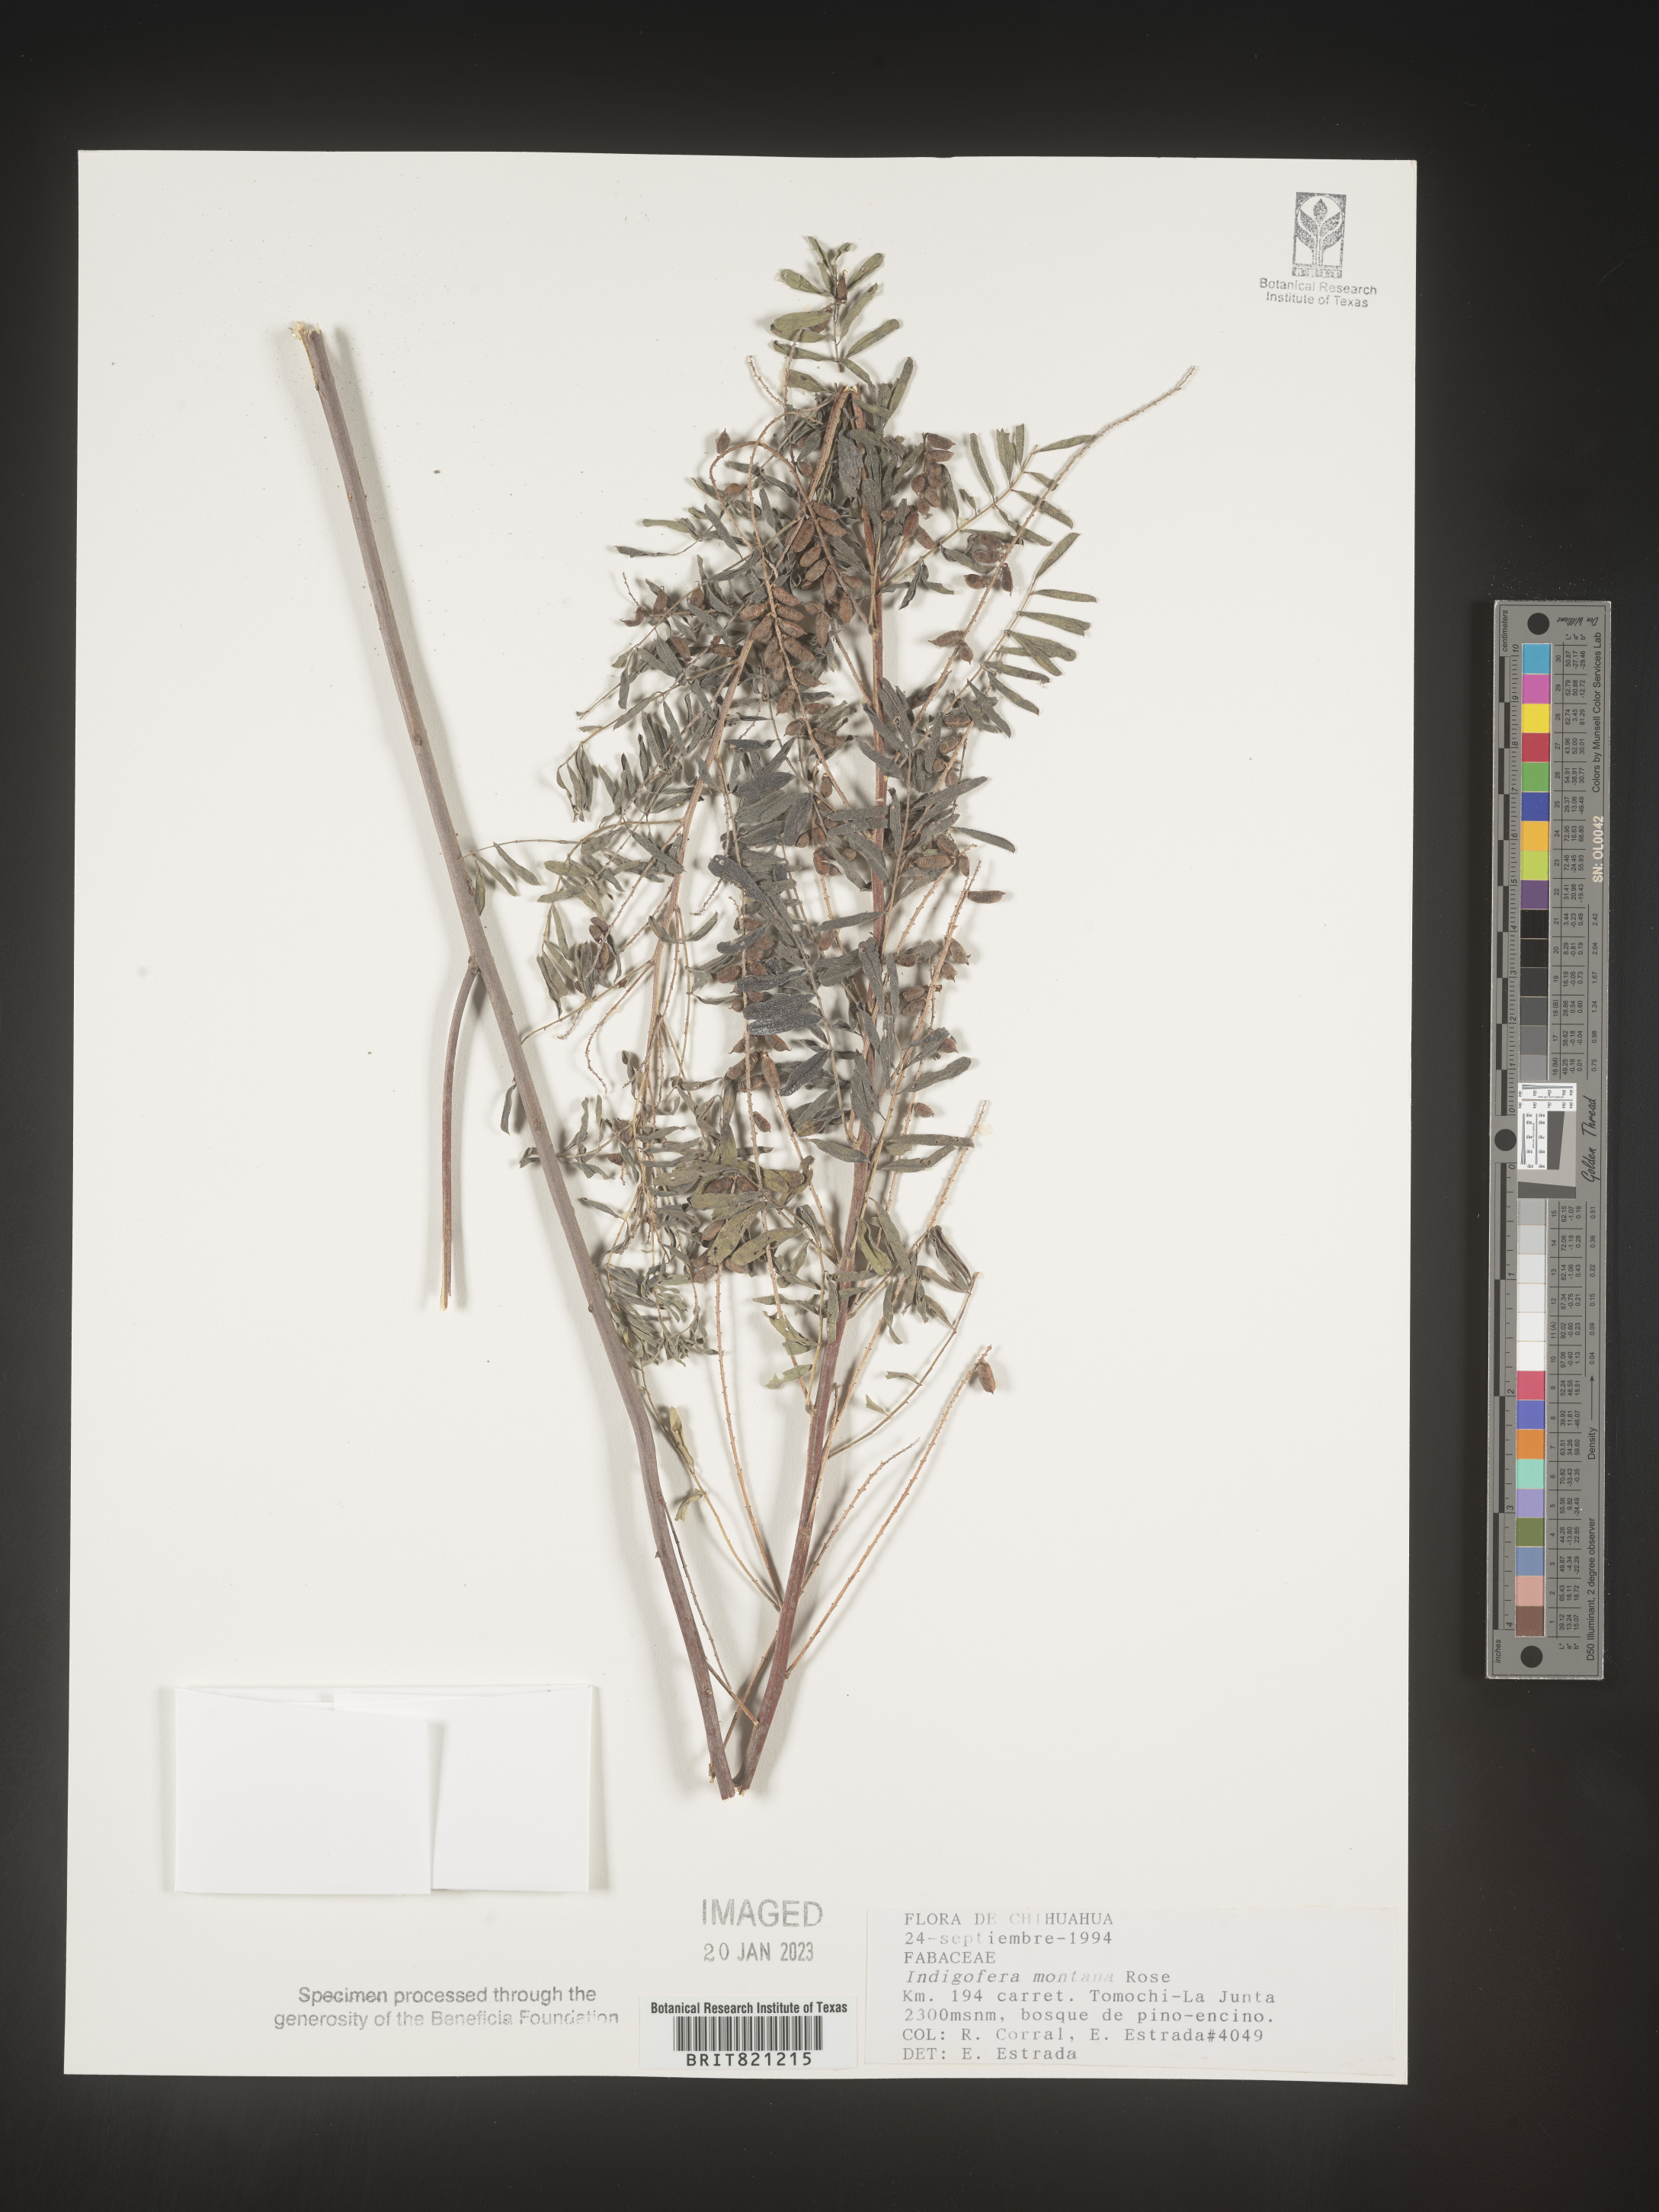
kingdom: Plantae
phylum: Tracheophyta
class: Magnoliopsida
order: Fabales
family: Fabaceae
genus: Indigofera
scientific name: Indigofera
